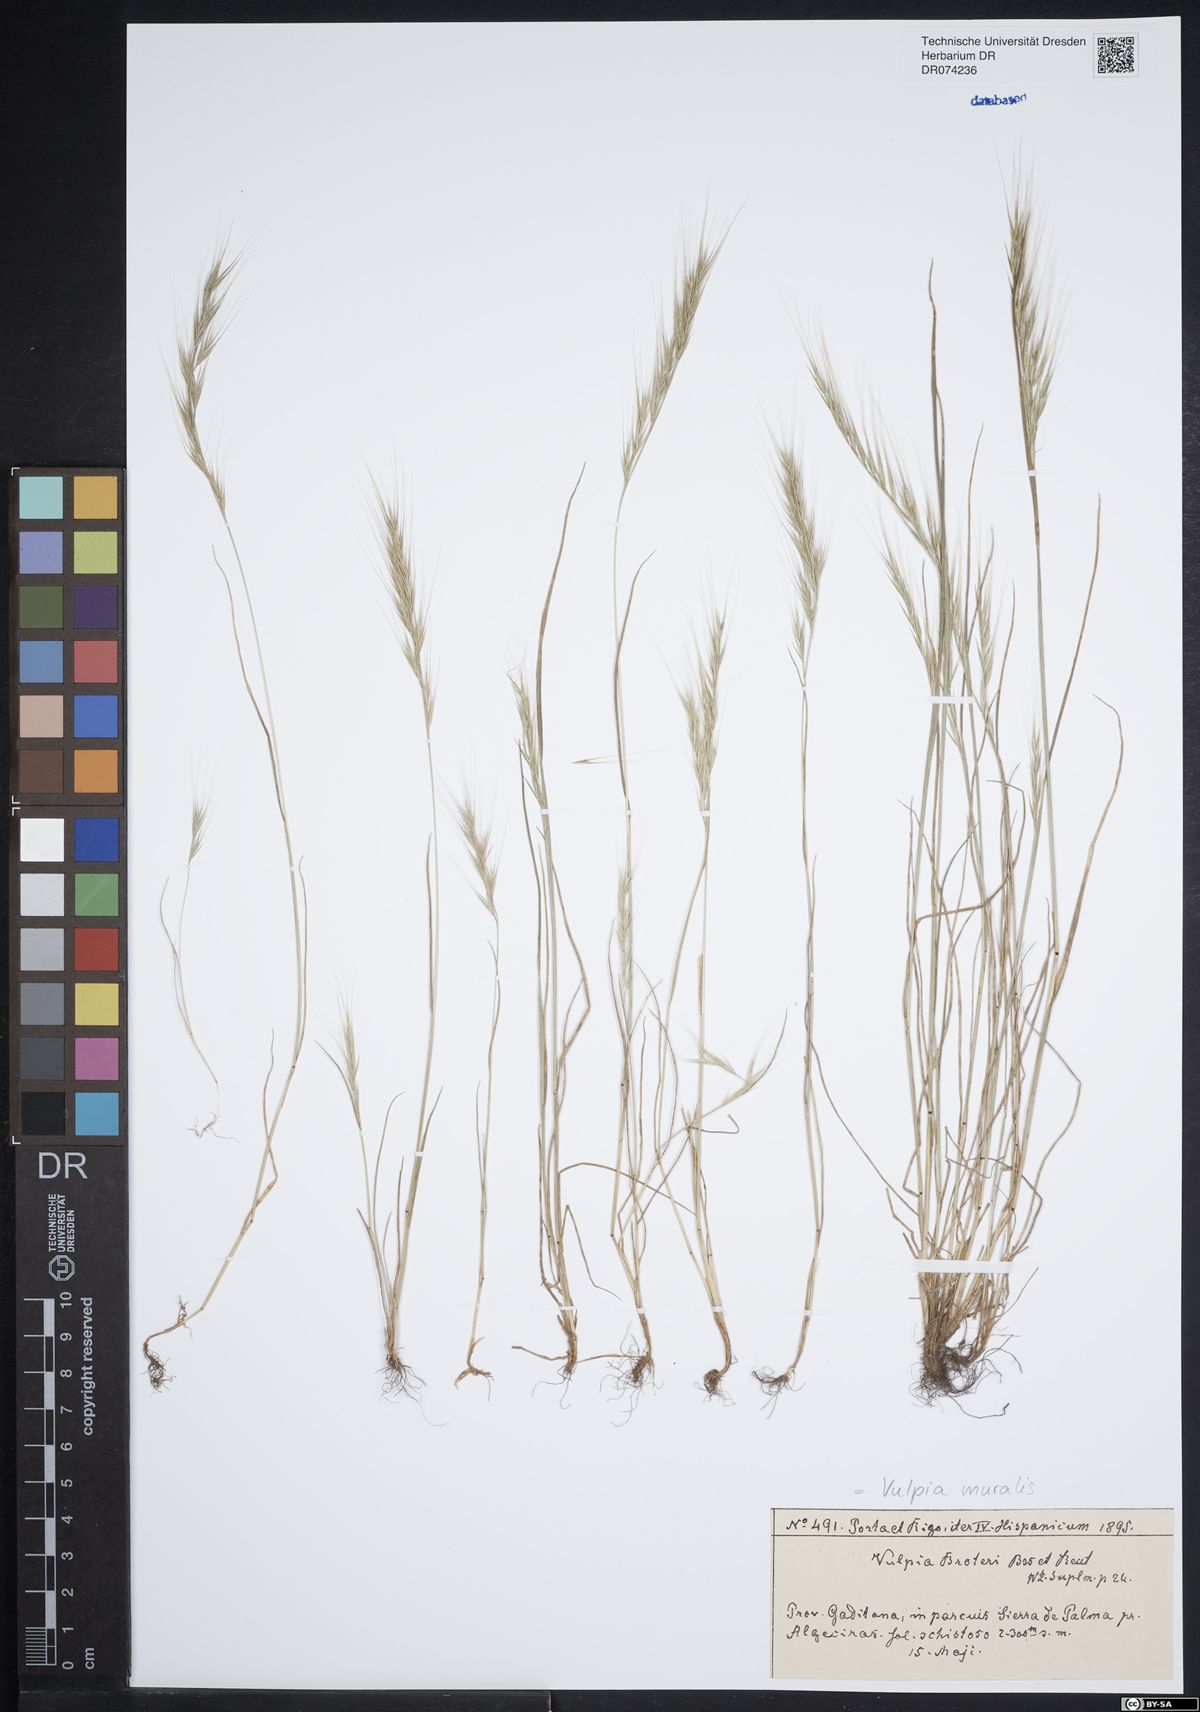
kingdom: Plantae
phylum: Tracheophyta
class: Liliopsida
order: Poales
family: Poaceae
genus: Festuca
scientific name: Festuca muralis
